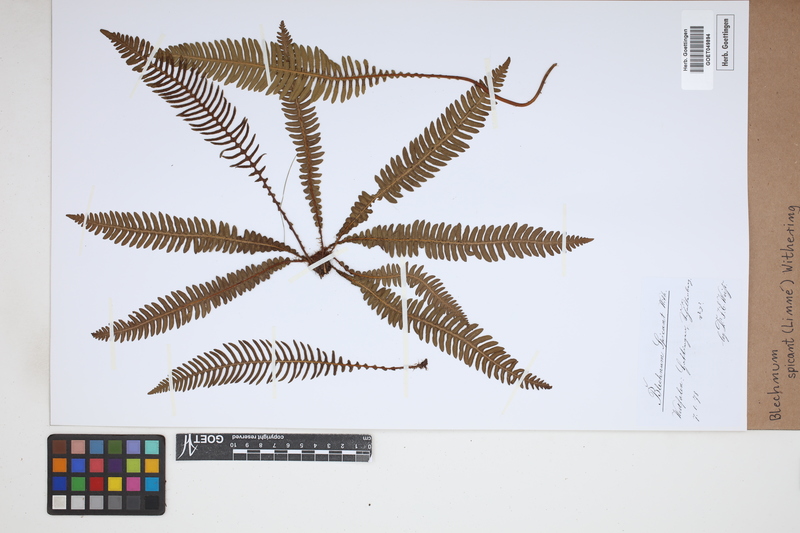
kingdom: Plantae
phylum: Tracheophyta
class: Polypodiopsida
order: Polypodiales
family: Blechnaceae
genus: Struthiopteris
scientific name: Struthiopteris spicant
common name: Deer fern
